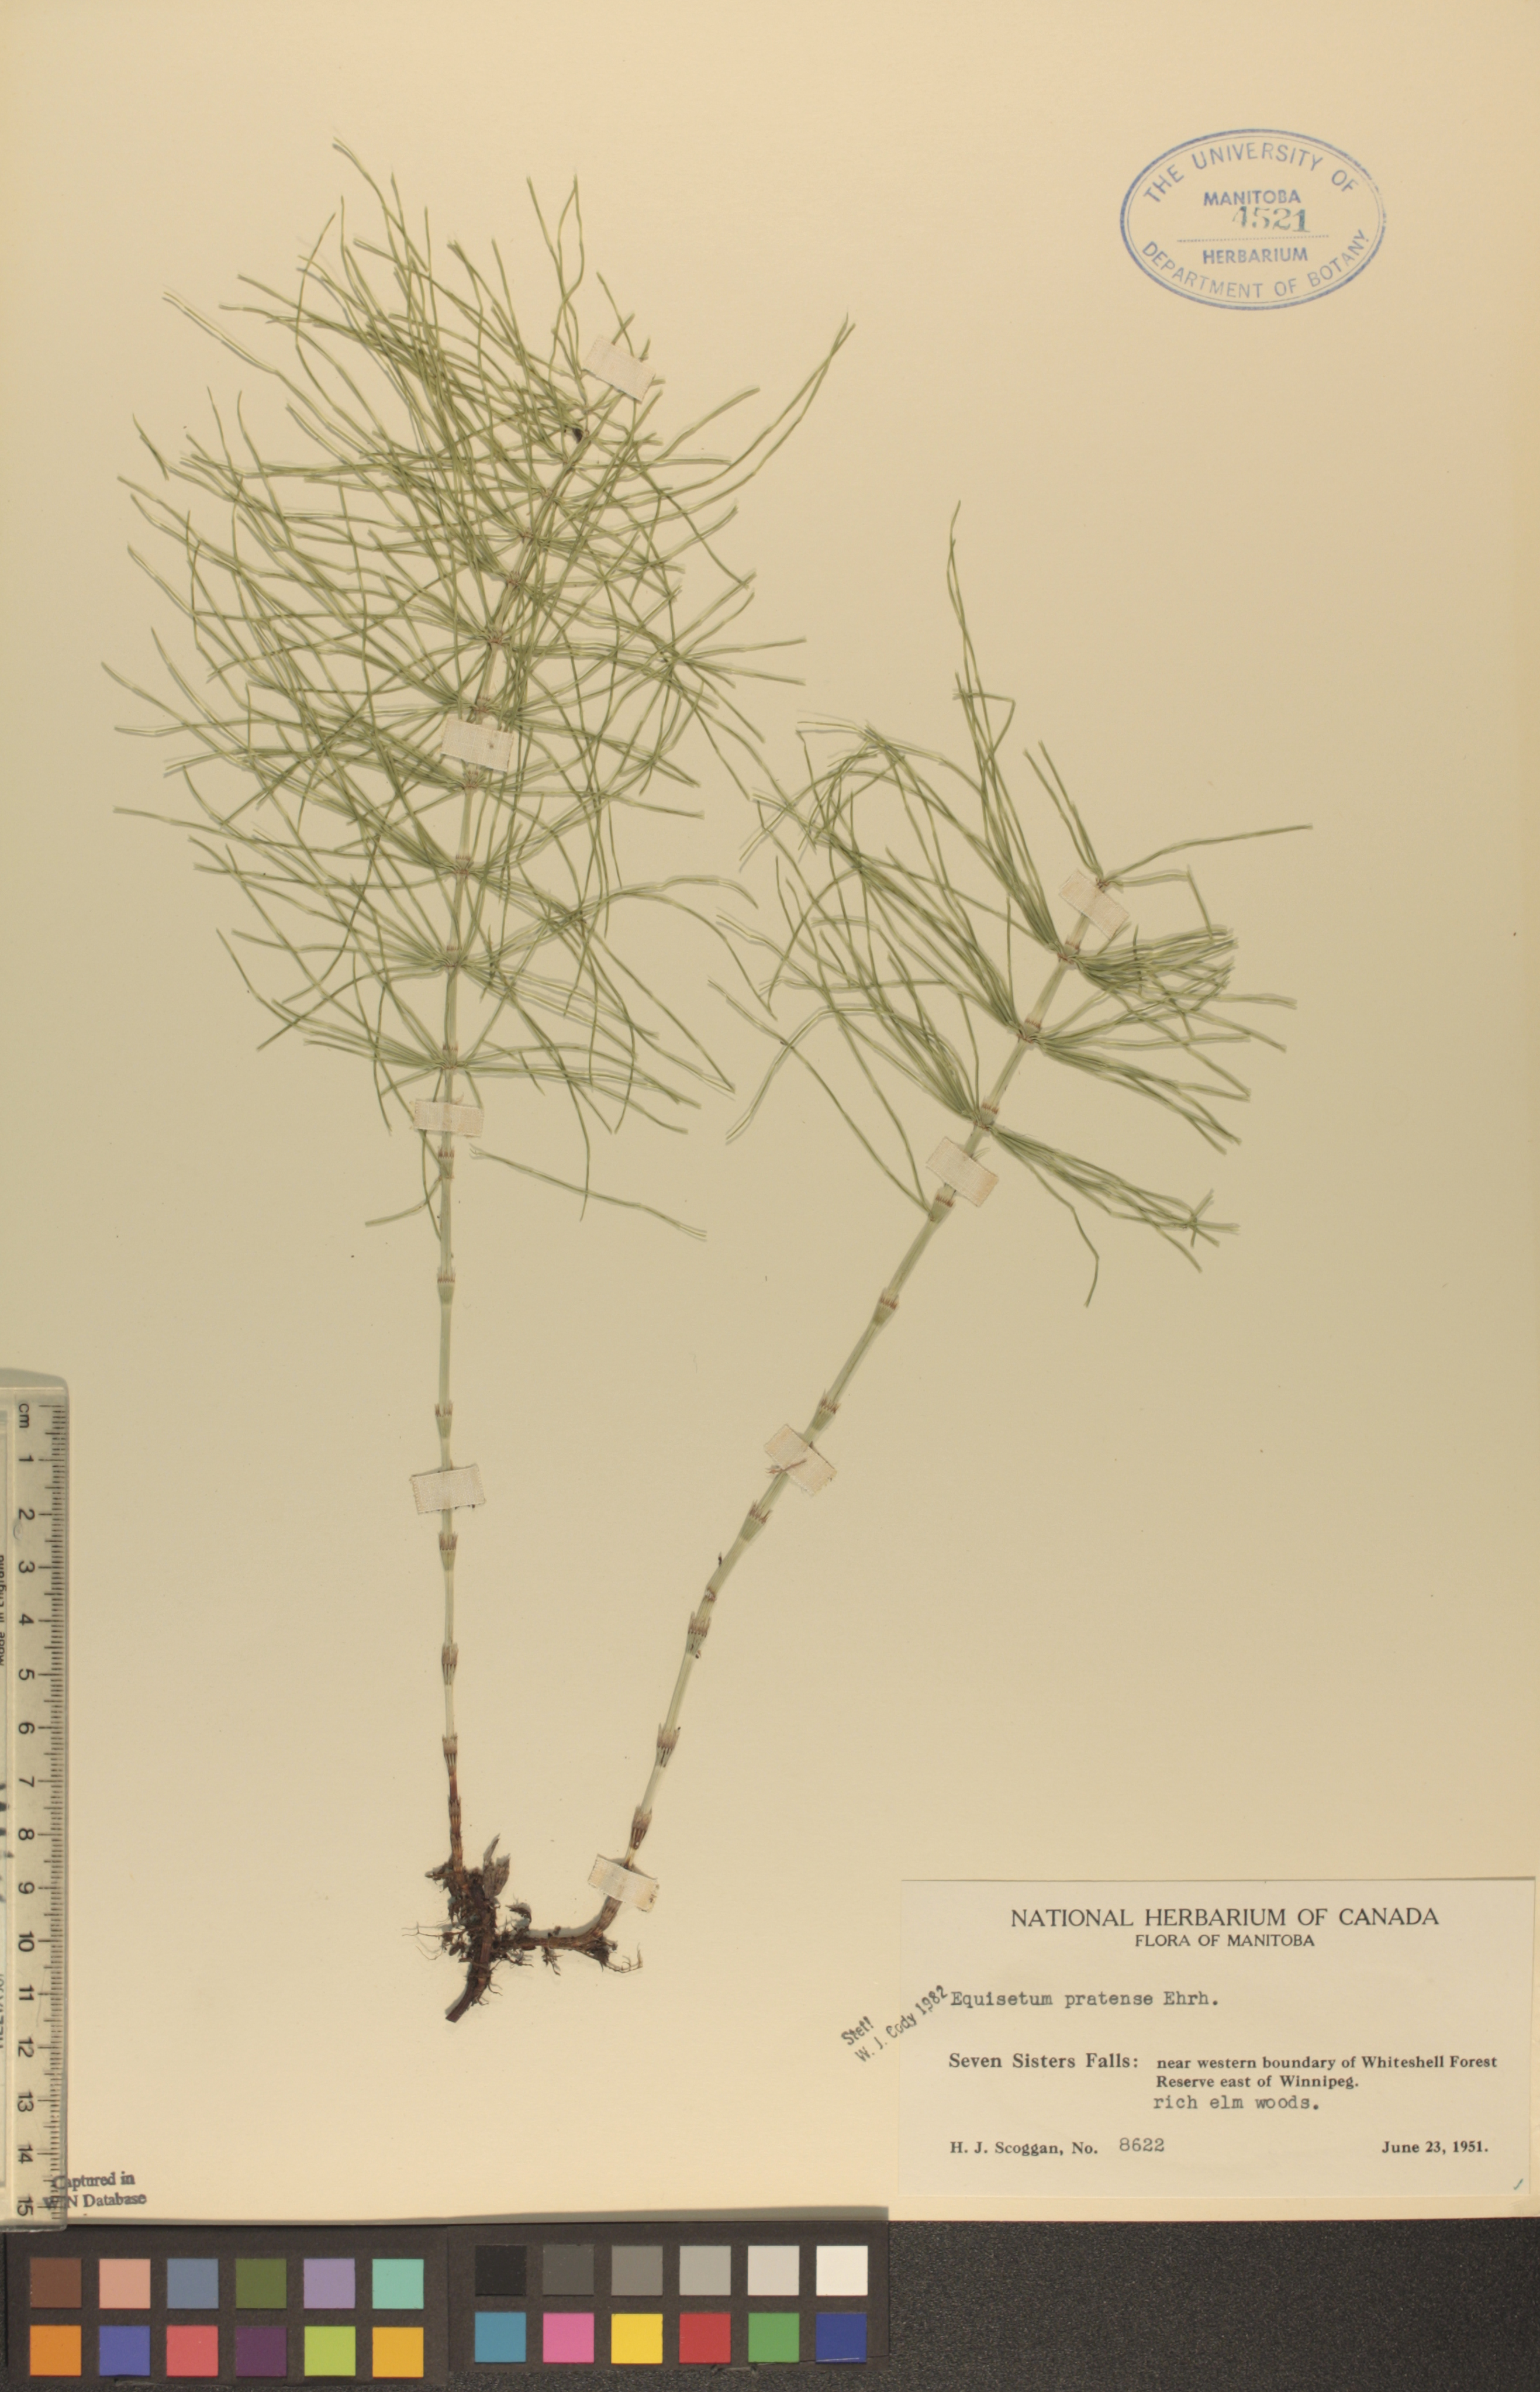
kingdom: Plantae
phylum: Tracheophyta
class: Polypodiopsida
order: Equisetales
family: Equisetaceae
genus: Equisetum
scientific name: Equisetum pratense
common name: Meadow horsetail
